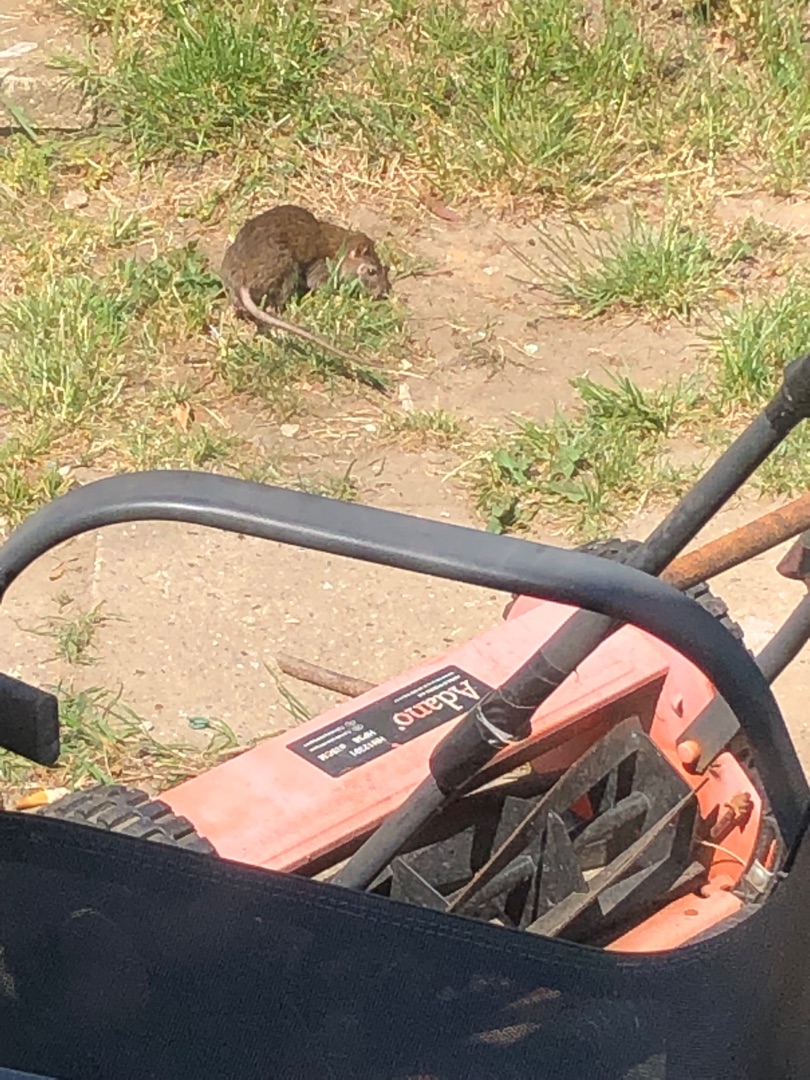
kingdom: Animalia
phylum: Chordata
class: Mammalia
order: Rodentia
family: Muridae
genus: Rattus
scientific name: Rattus norvegicus
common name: Brun rotte
